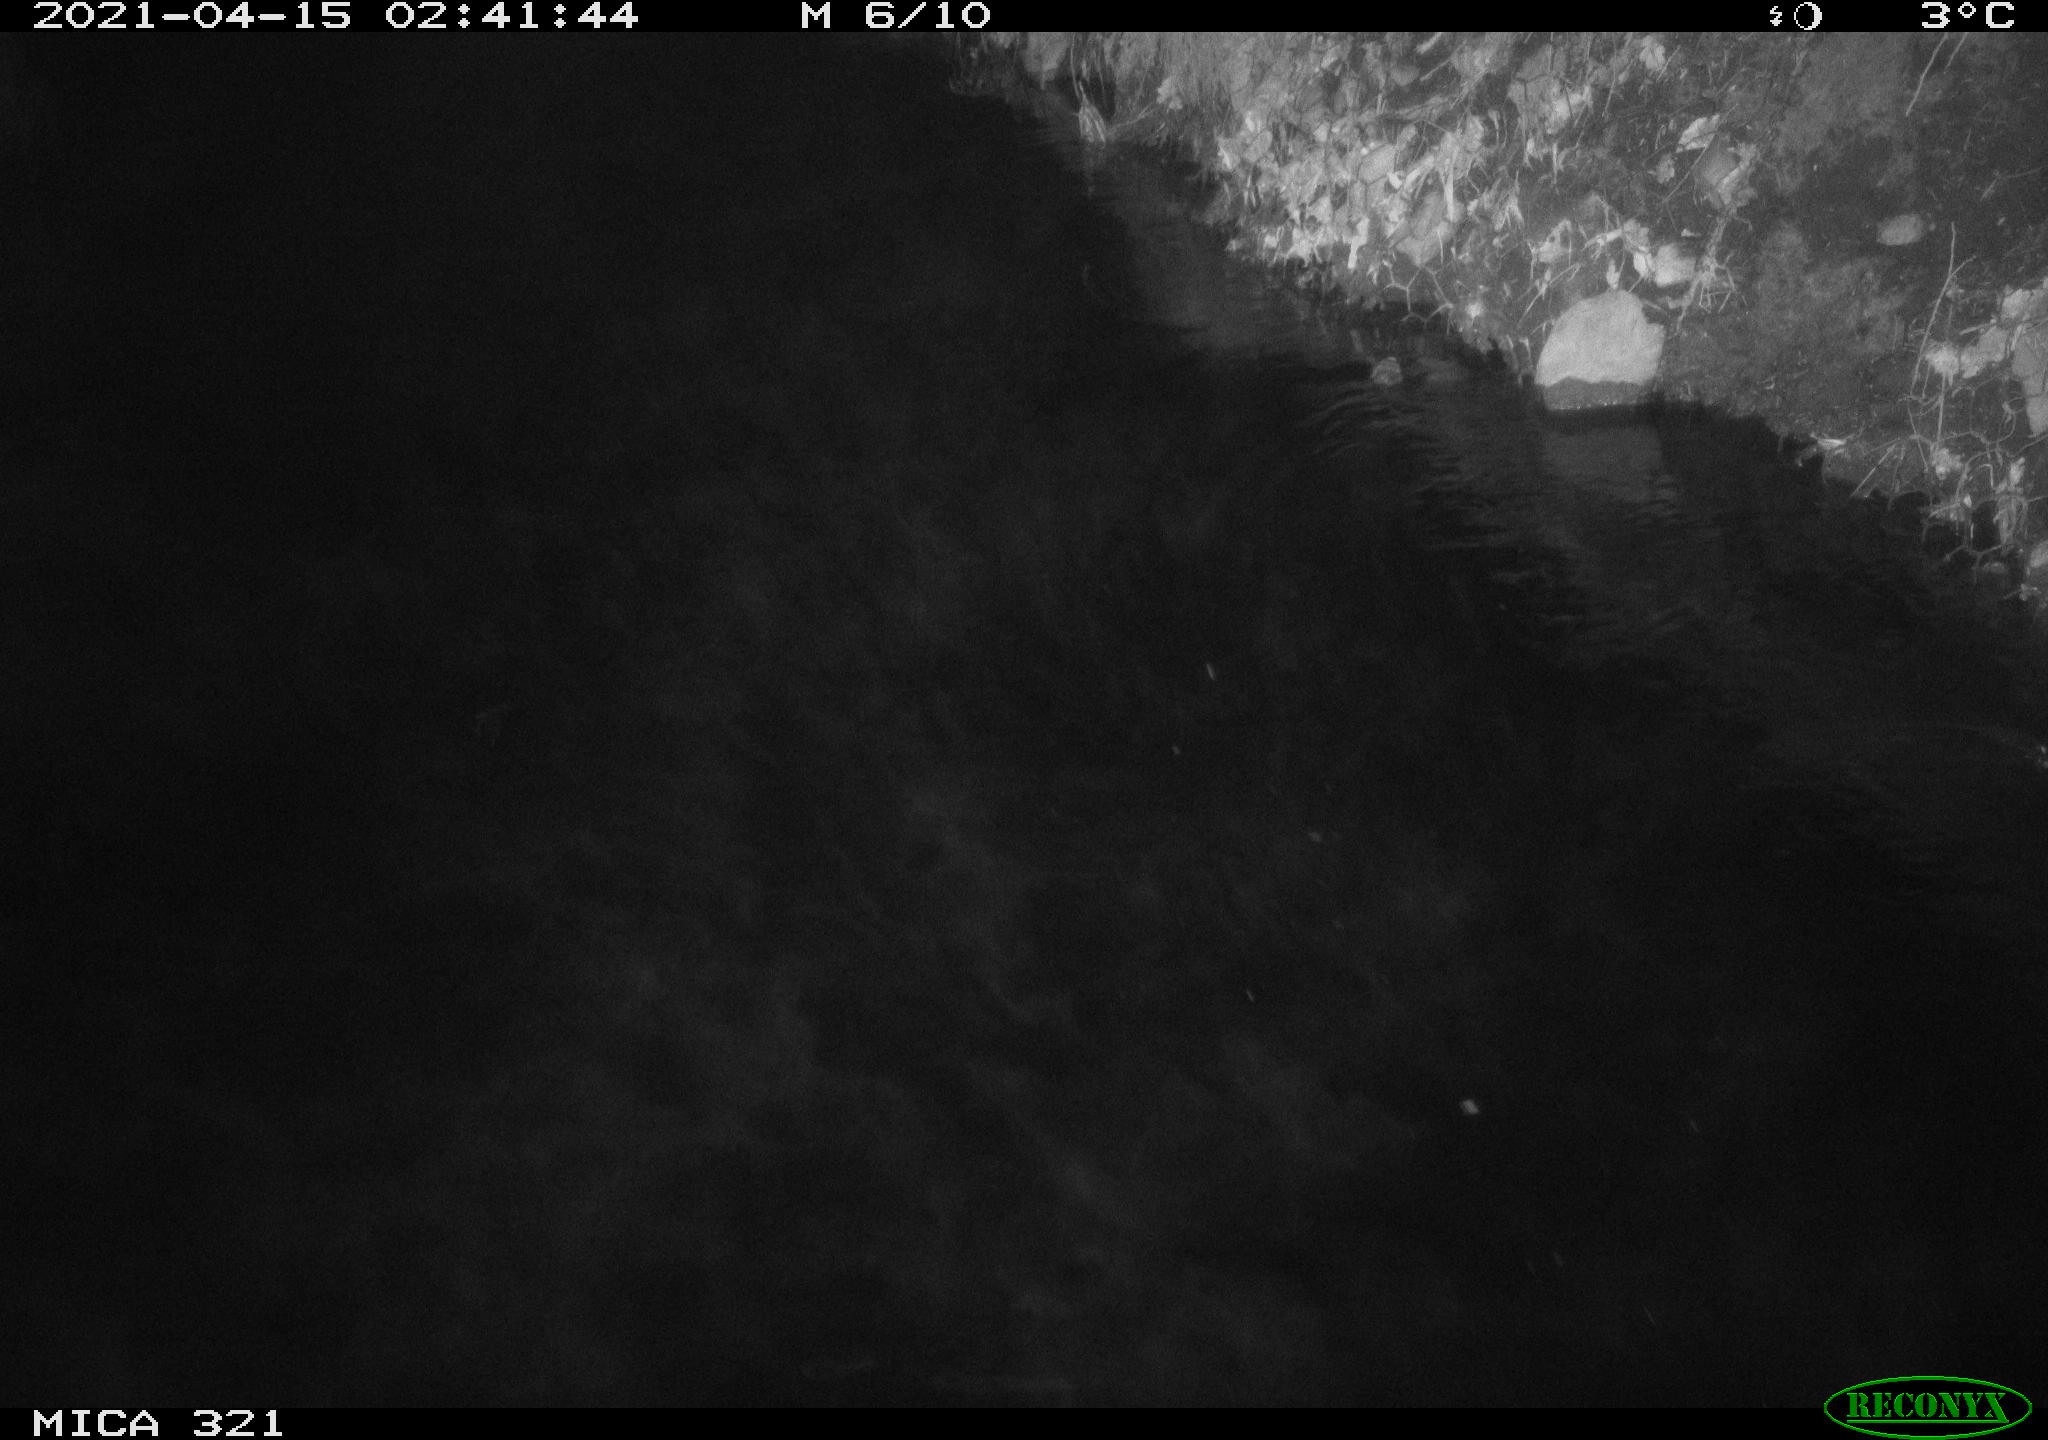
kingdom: Animalia
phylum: Chordata
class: Aves
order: Anseriformes
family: Anatidae
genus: Anas
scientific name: Anas
